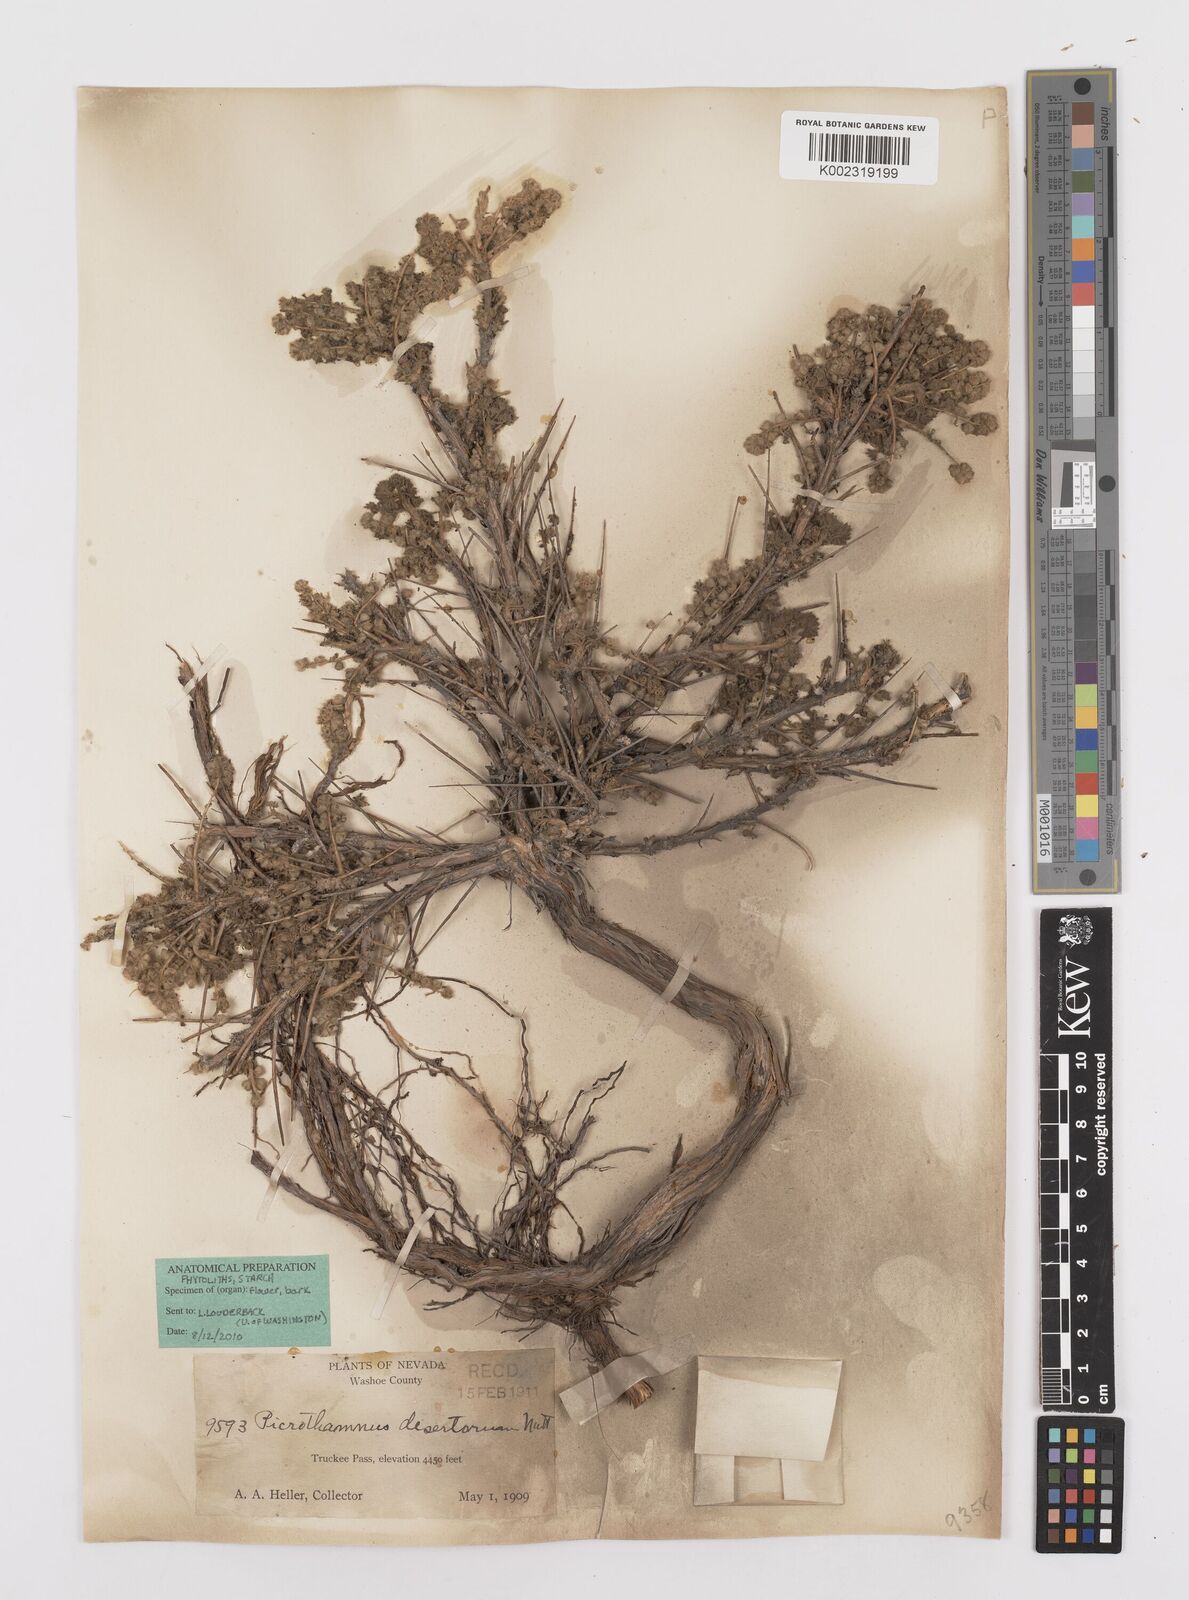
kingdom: Plantae
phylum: Tracheophyta
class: Magnoliopsida
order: Asterales
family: Asteraceae
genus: Artemisia
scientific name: Artemisia spinescens
